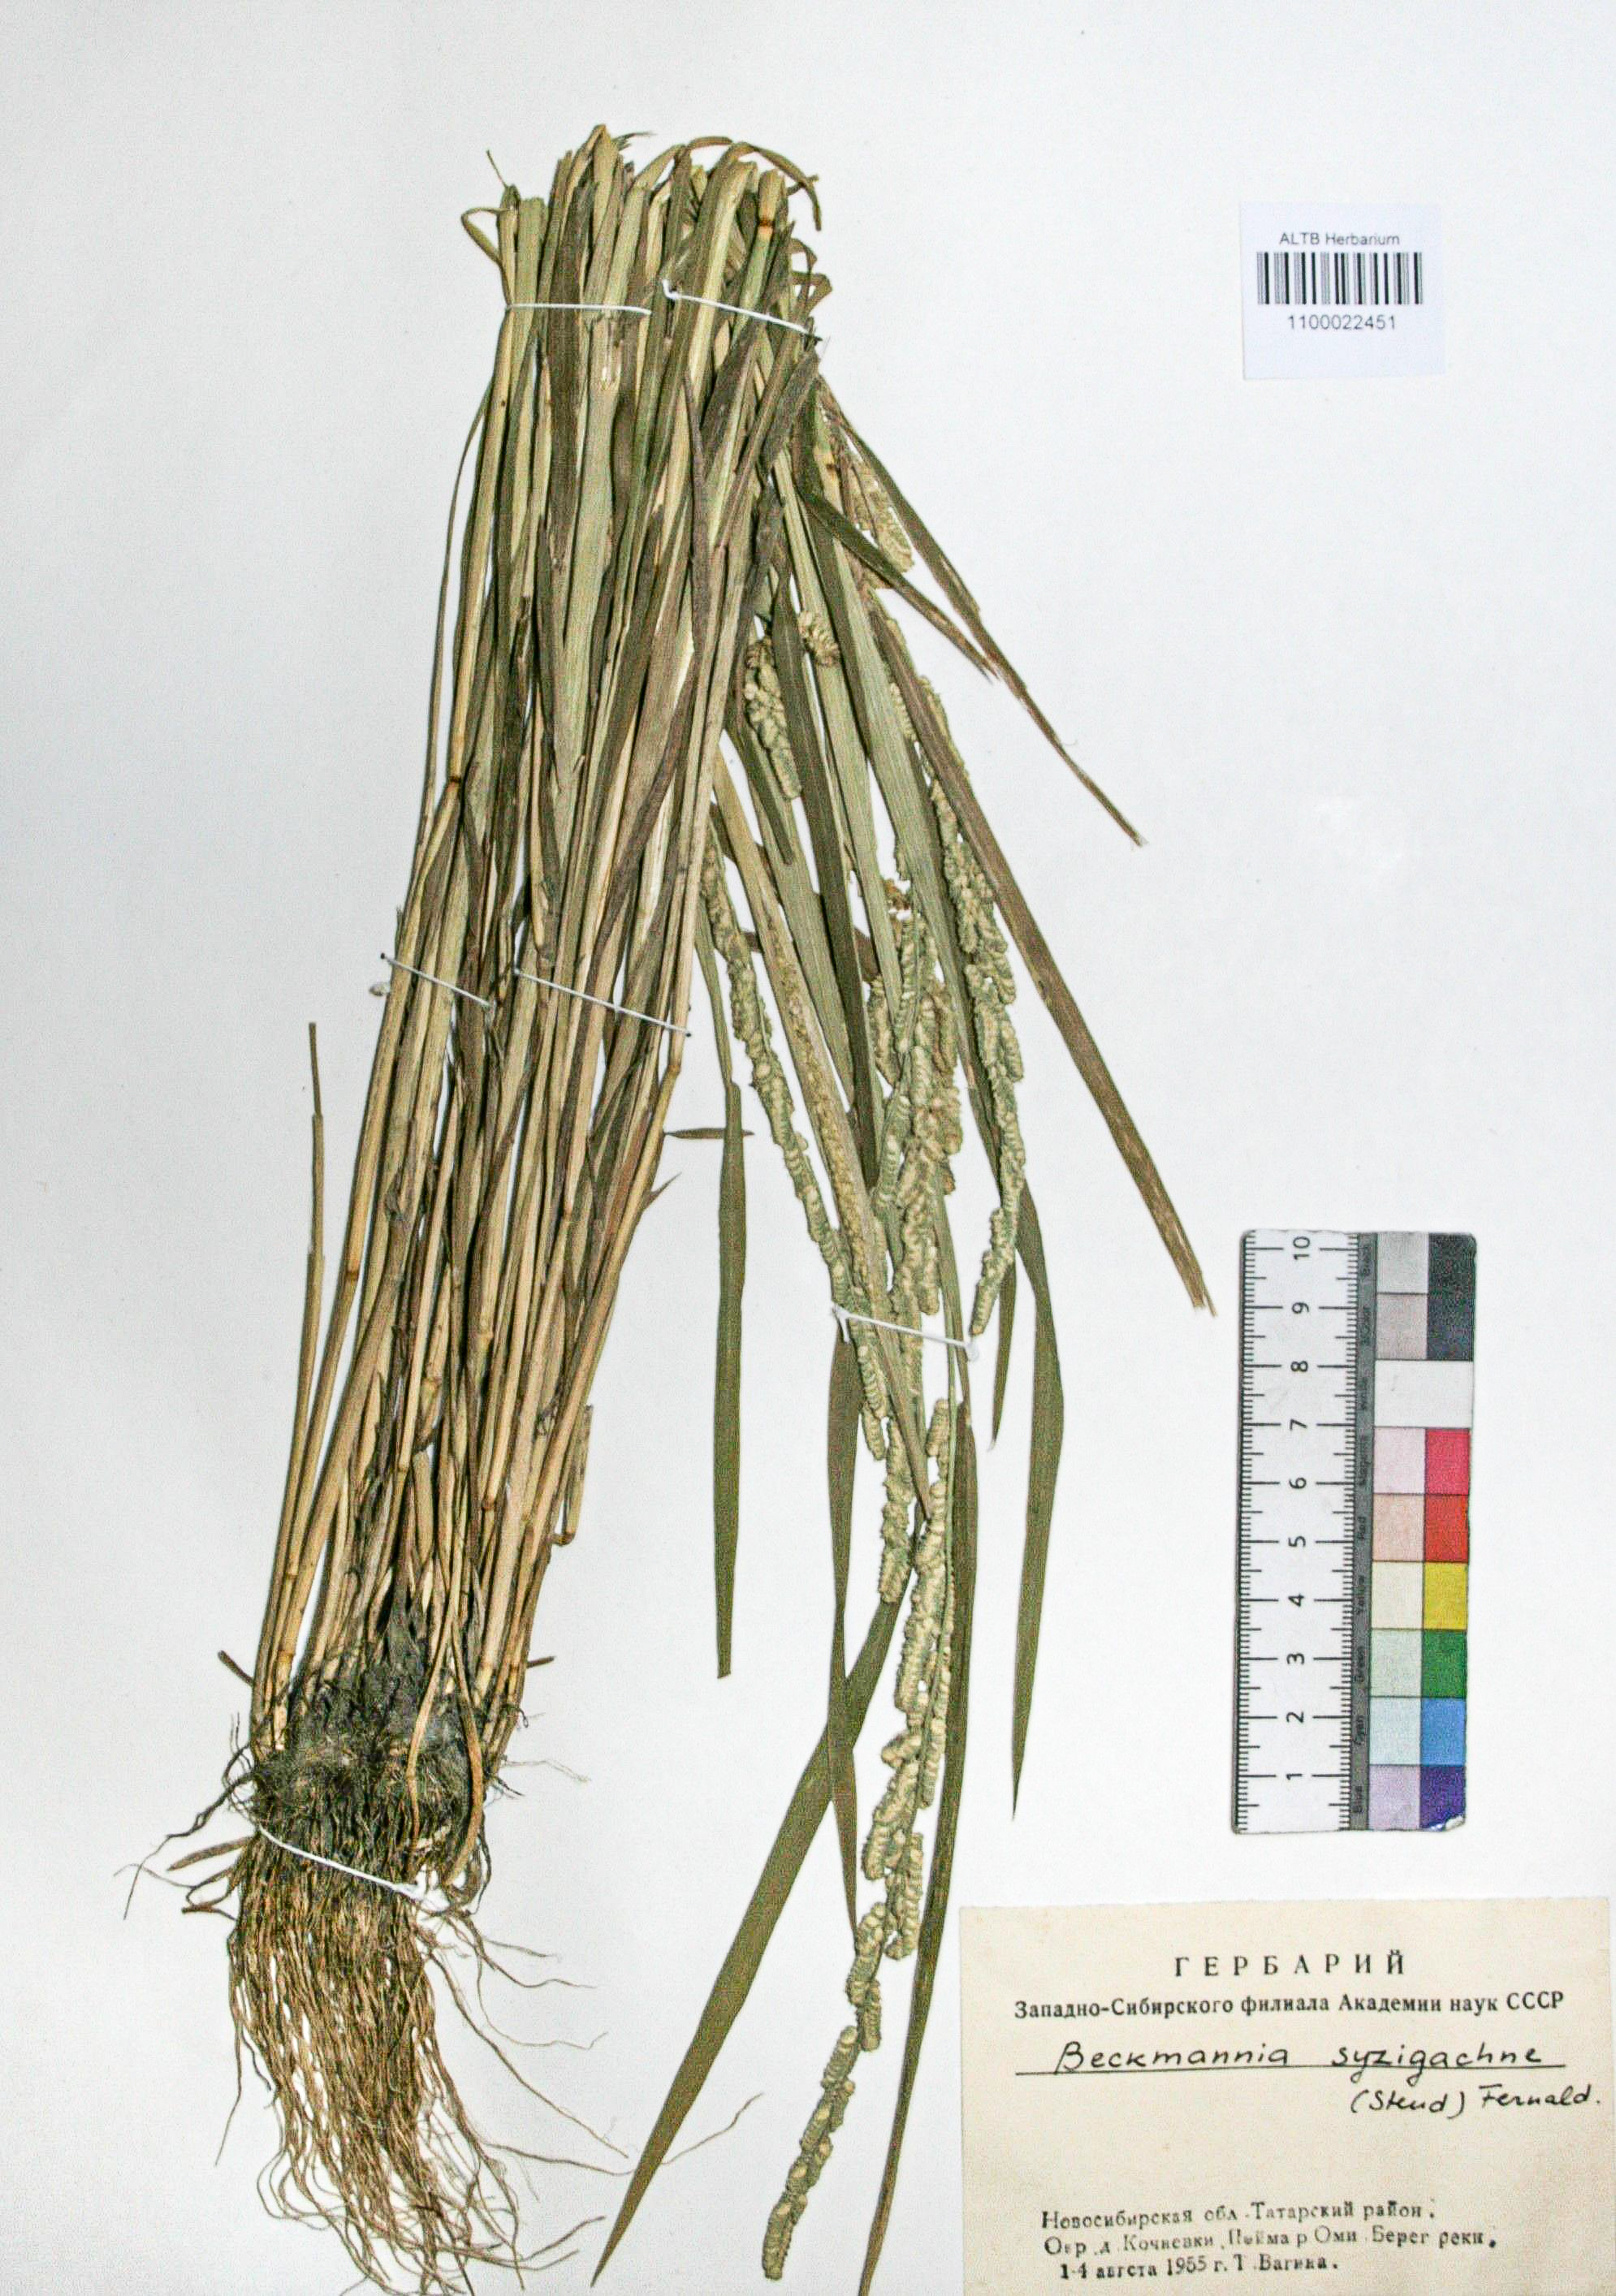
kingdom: Plantae
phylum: Tracheophyta
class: Liliopsida
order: Poales
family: Poaceae
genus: Beckmannia
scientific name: Beckmannia syzigachne
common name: American slough-grass
